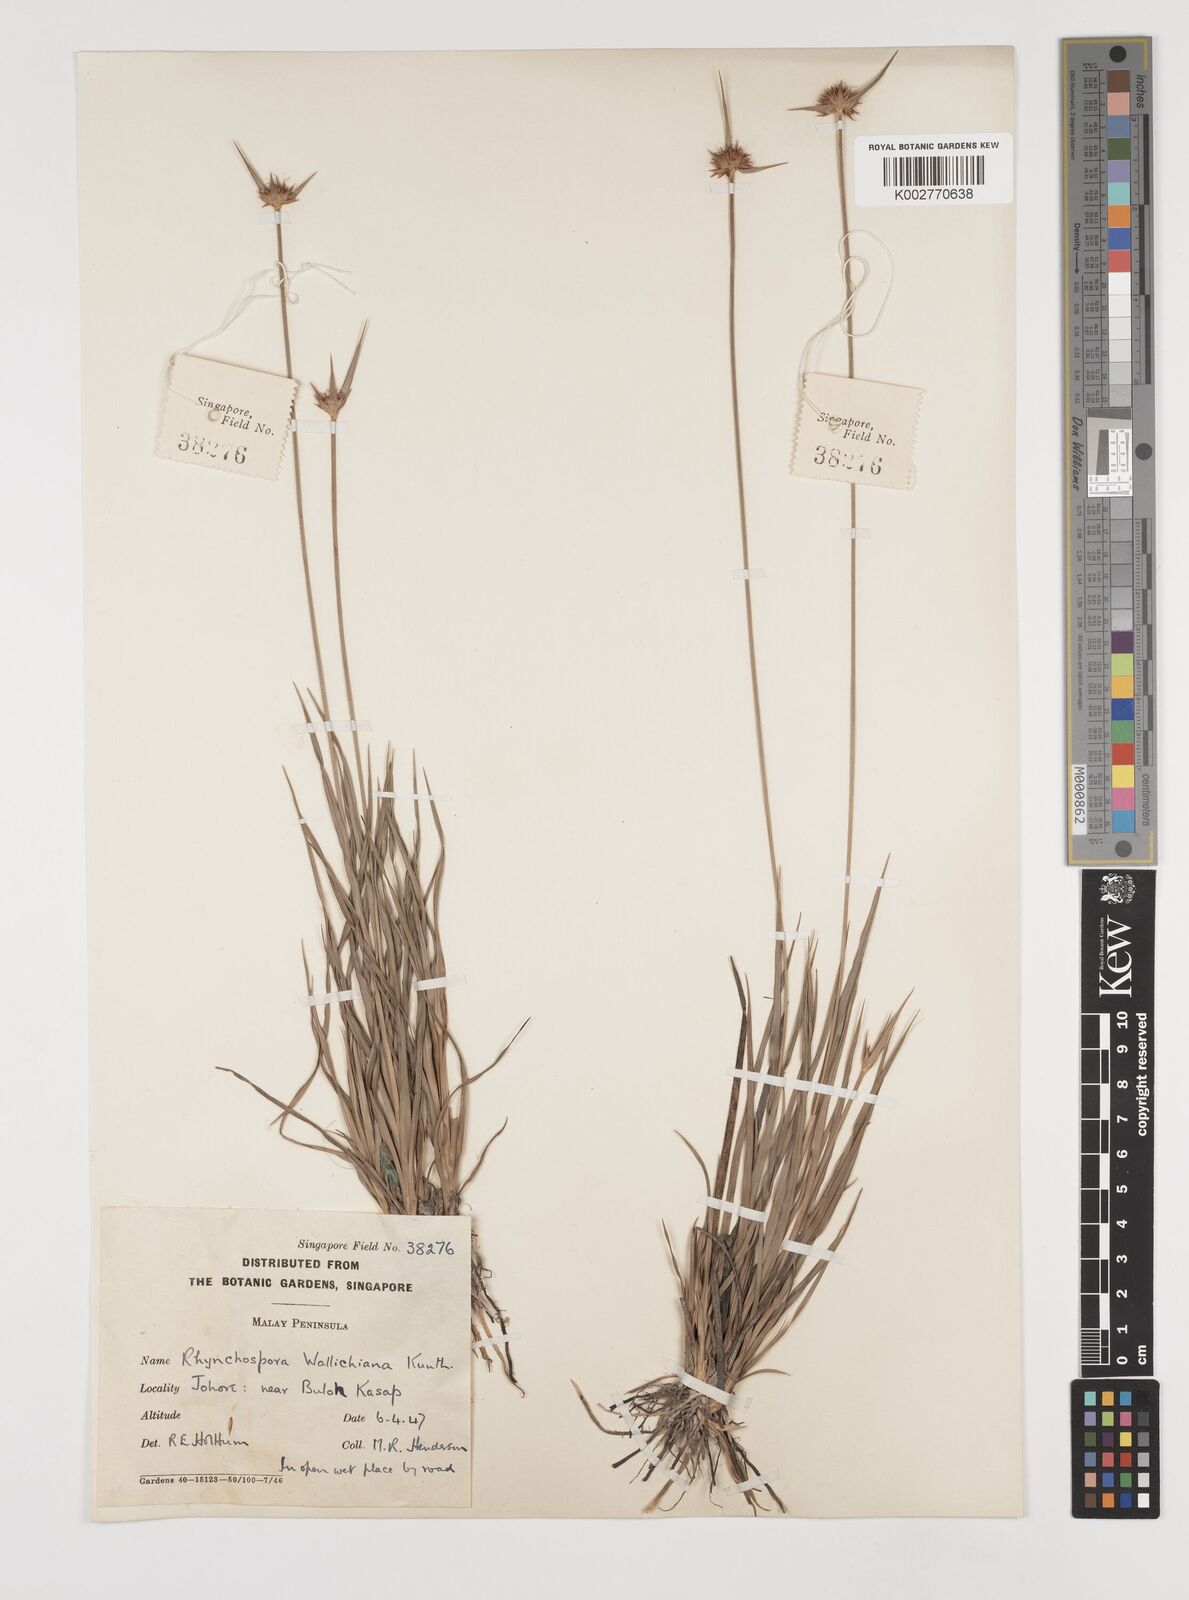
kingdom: Plantae
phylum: Tracheophyta
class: Liliopsida
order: Poales
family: Cyperaceae
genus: Rhynchospora
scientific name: Rhynchospora rubra
